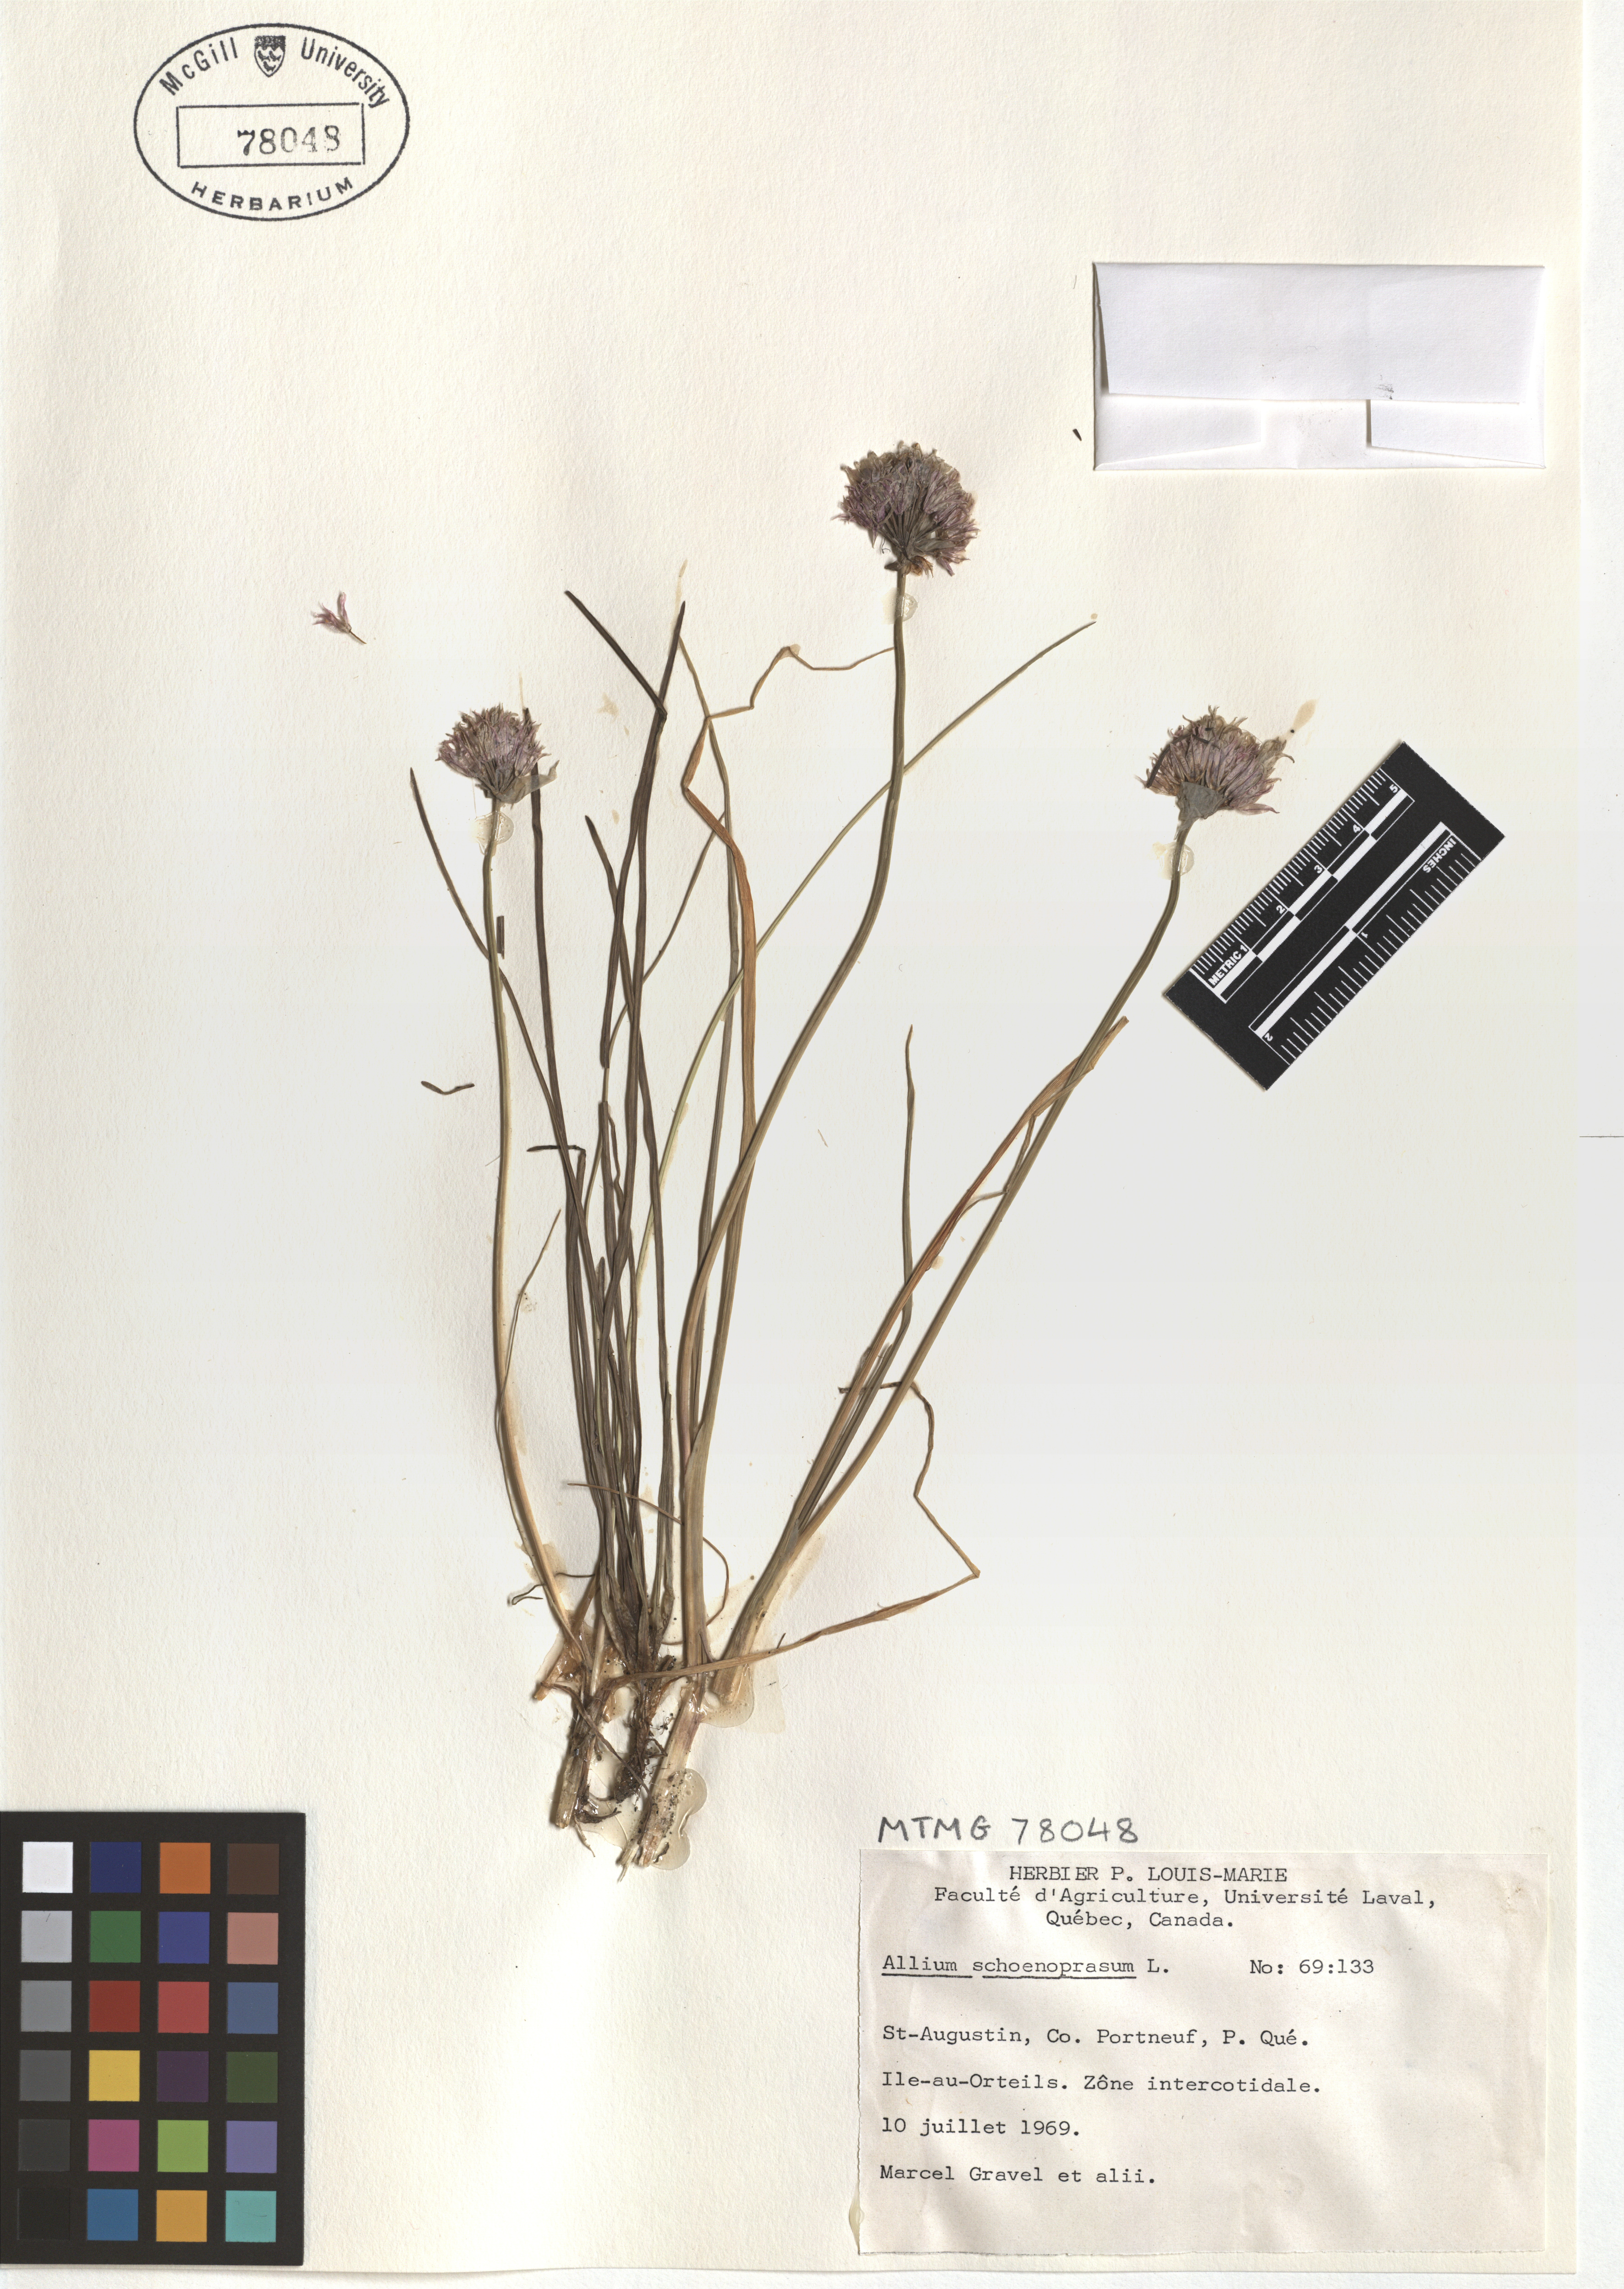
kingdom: Plantae
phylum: Tracheophyta
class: Liliopsida
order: Asparagales
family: Amaryllidaceae
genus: Allium
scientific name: Allium schoenoprasum
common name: Chives
